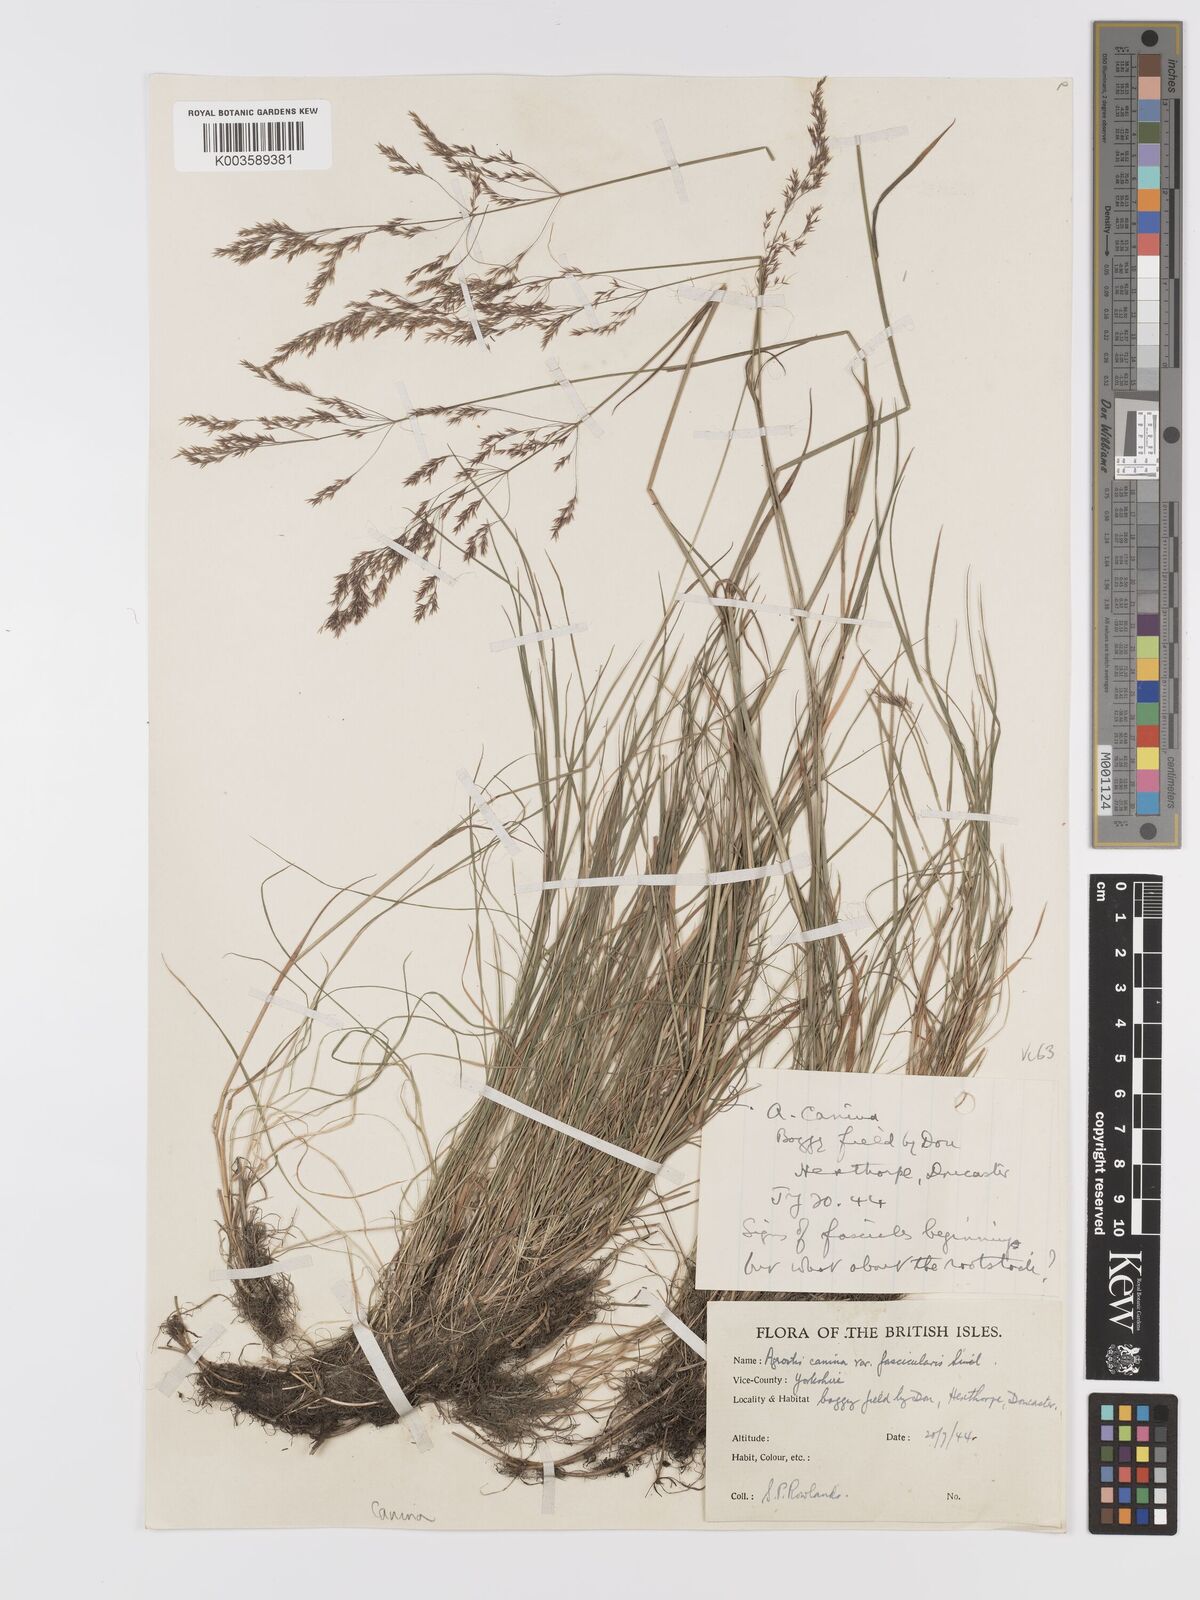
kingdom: Plantae
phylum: Tracheophyta
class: Liliopsida
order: Poales
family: Poaceae
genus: Agrostis
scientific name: Agrostis canina
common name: Velvet bent
